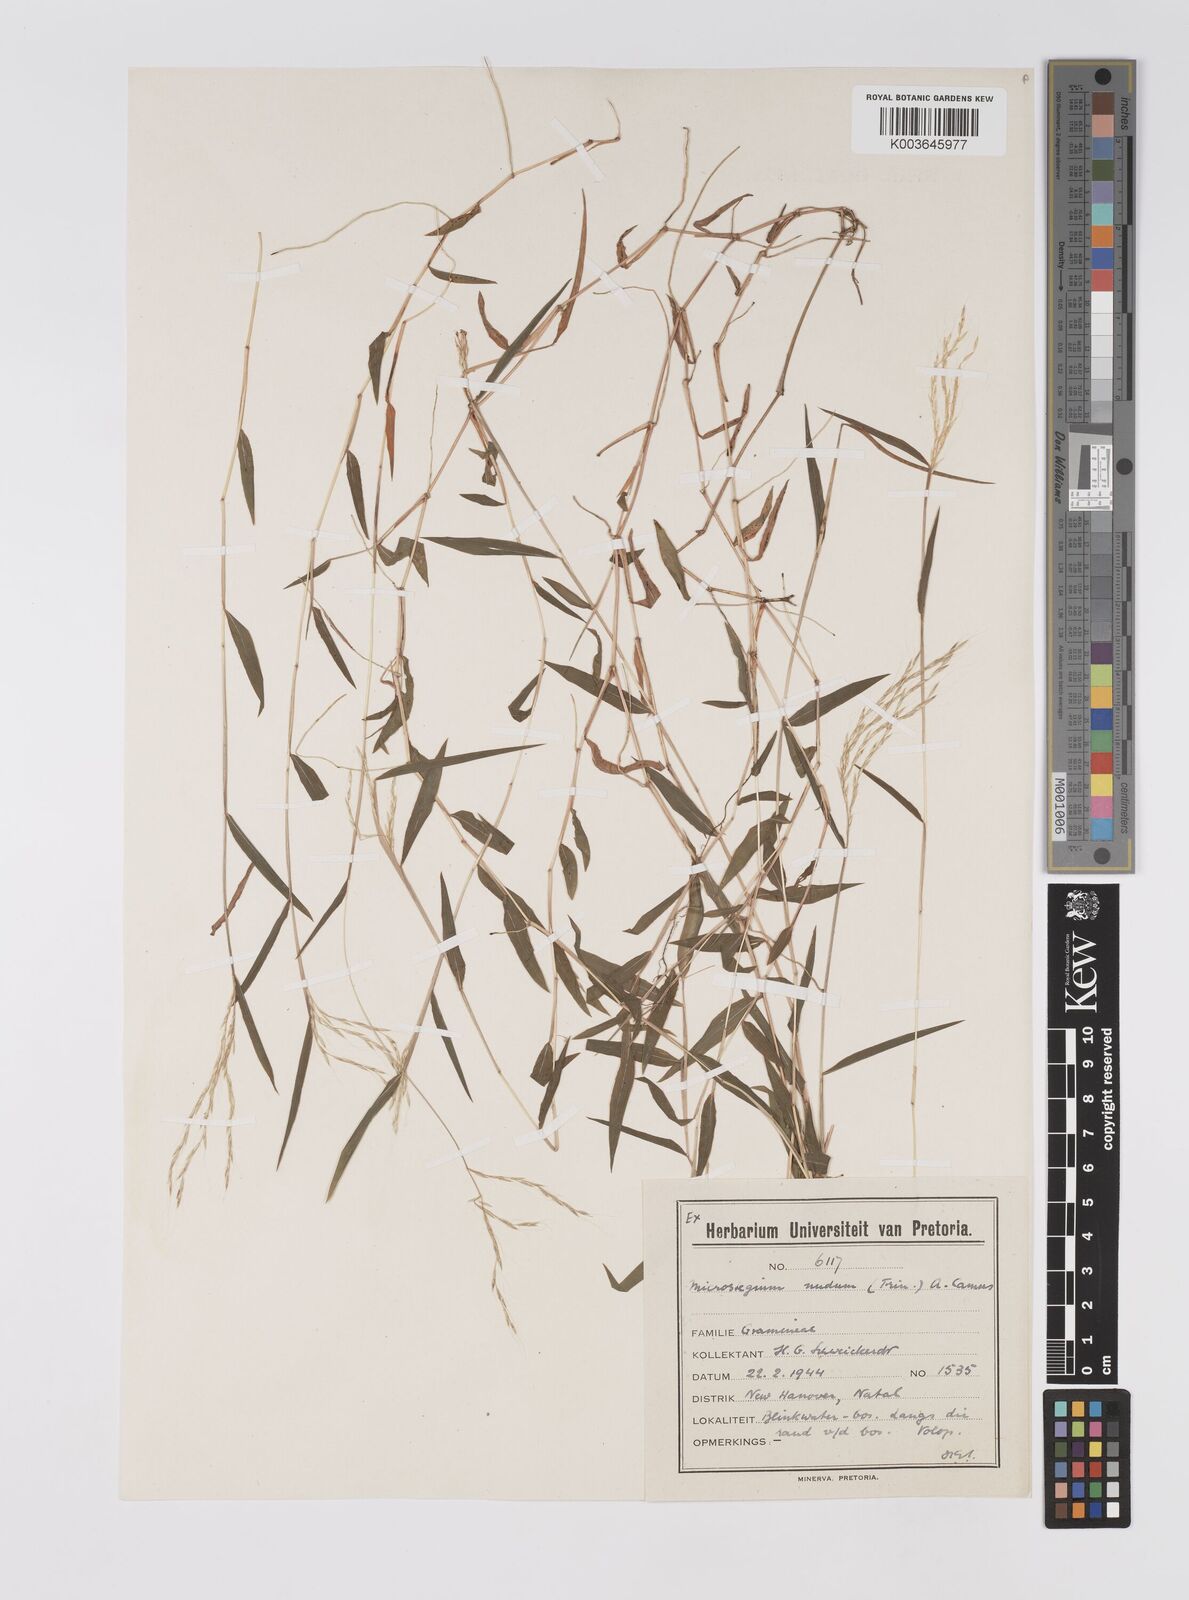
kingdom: Plantae
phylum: Tracheophyta
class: Liliopsida
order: Poales
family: Poaceae
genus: Microstegium
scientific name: Microstegium nudum
